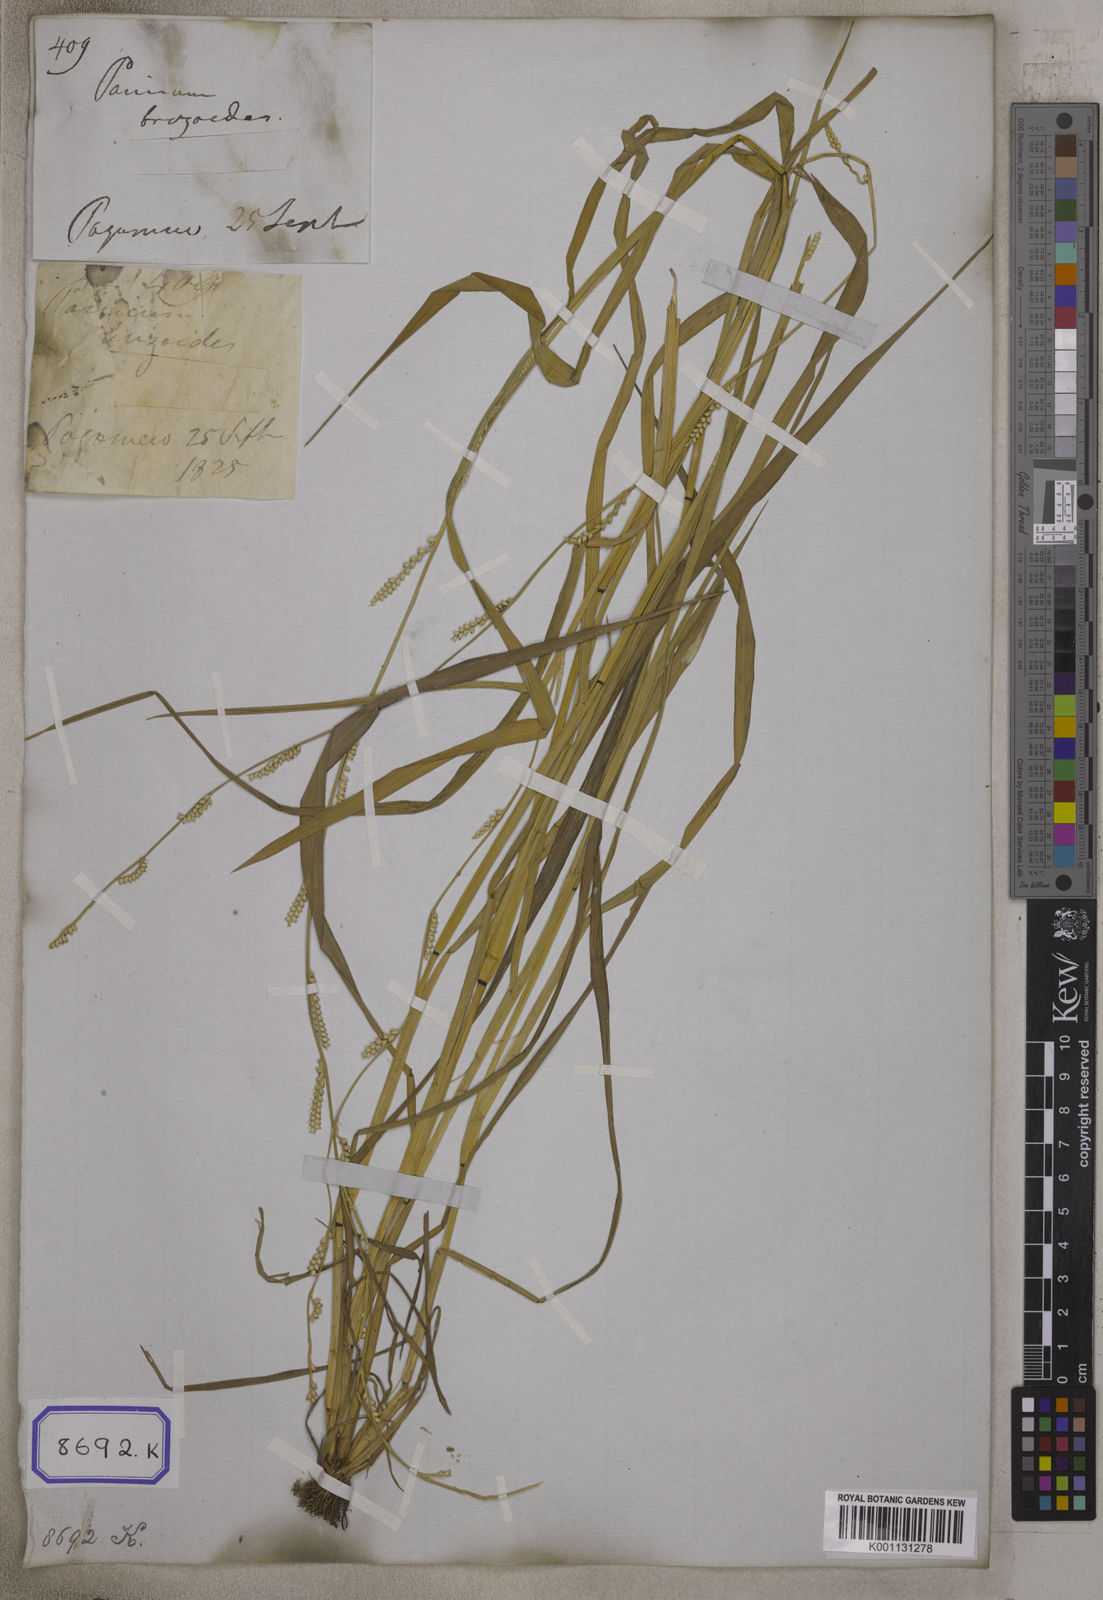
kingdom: Plantae
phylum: Tracheophyta
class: Liliopsida
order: Poales
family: Poaceae
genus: Setaria
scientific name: Setaria flavida
